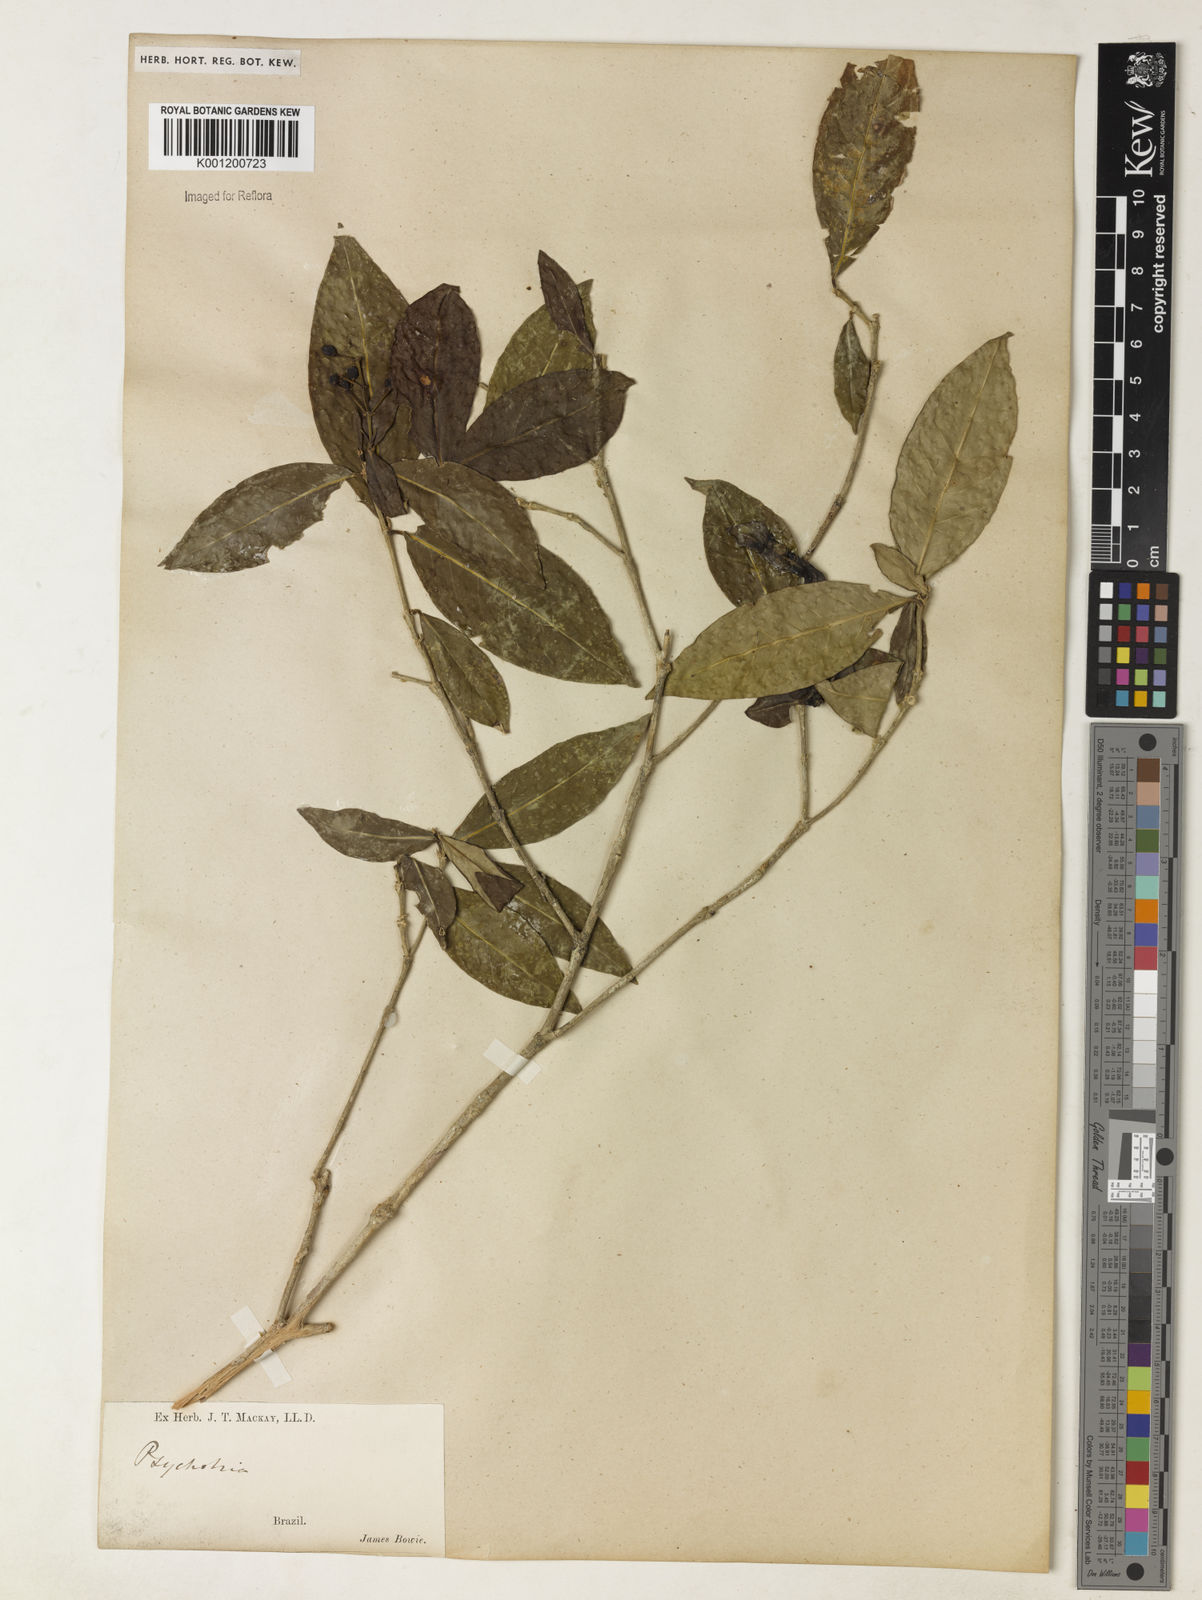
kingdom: Plantae
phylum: Tracheophyta
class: Magnoliopsida
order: Gentianales
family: Rubiaceae
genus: Psychotria
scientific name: Psychotria
